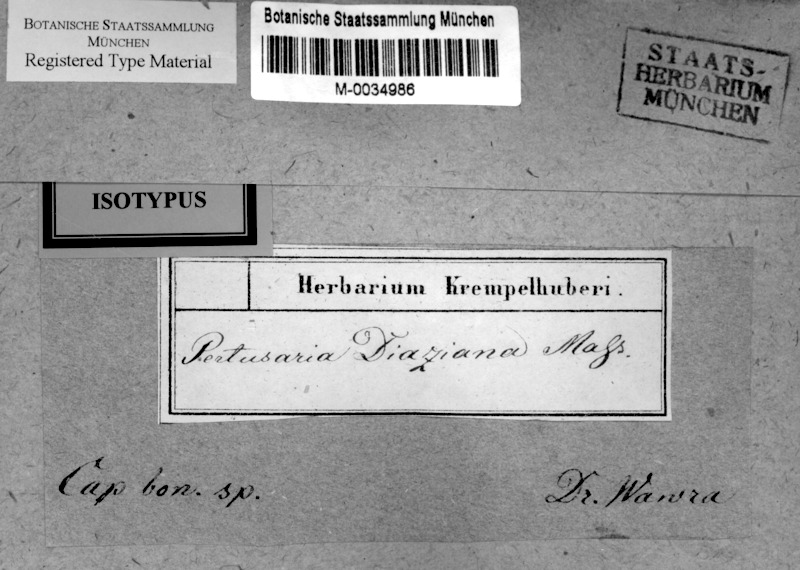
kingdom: Fungi
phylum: Ascomycota
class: Lecanoromycetes
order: Pertusariales
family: Pertusariaceae
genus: Pertusaria
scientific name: Pertusaria
